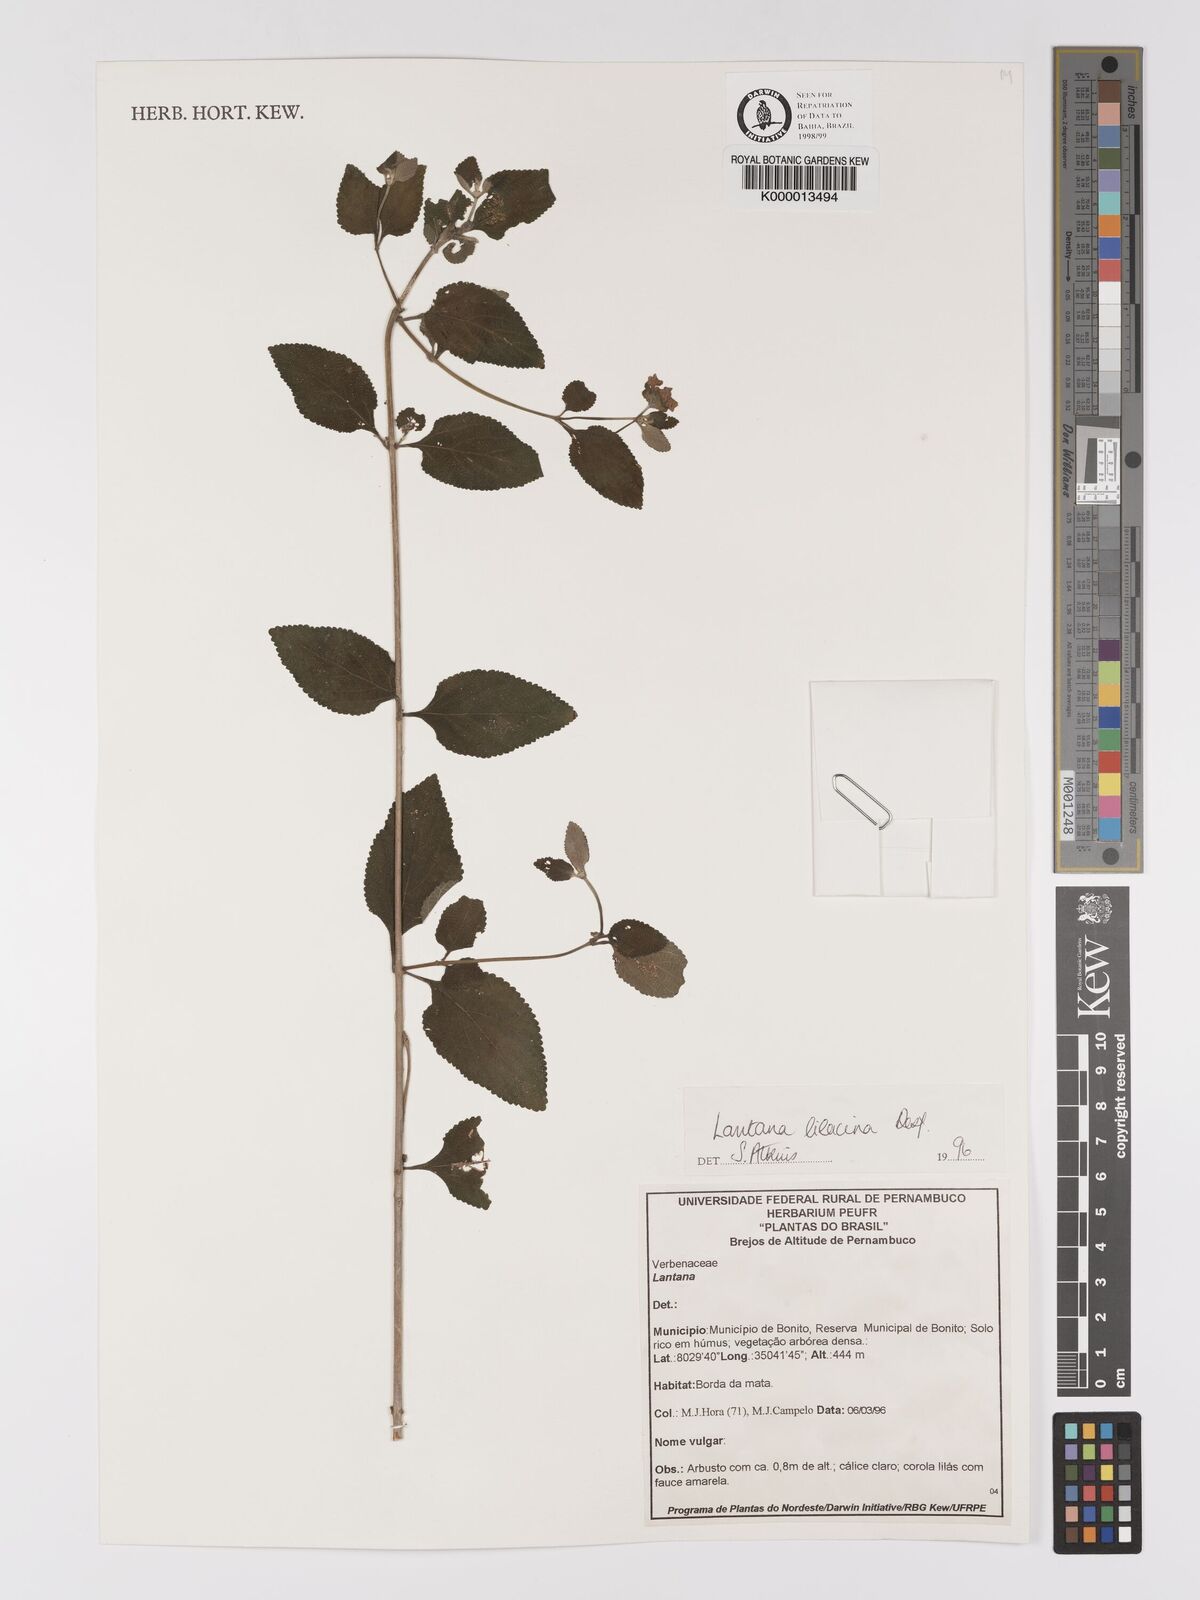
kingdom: Plantae
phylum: Tracheophyta
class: Magnoliopsida
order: Lamiales
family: Verbenaceae
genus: Lantana
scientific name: Lantana fucata
